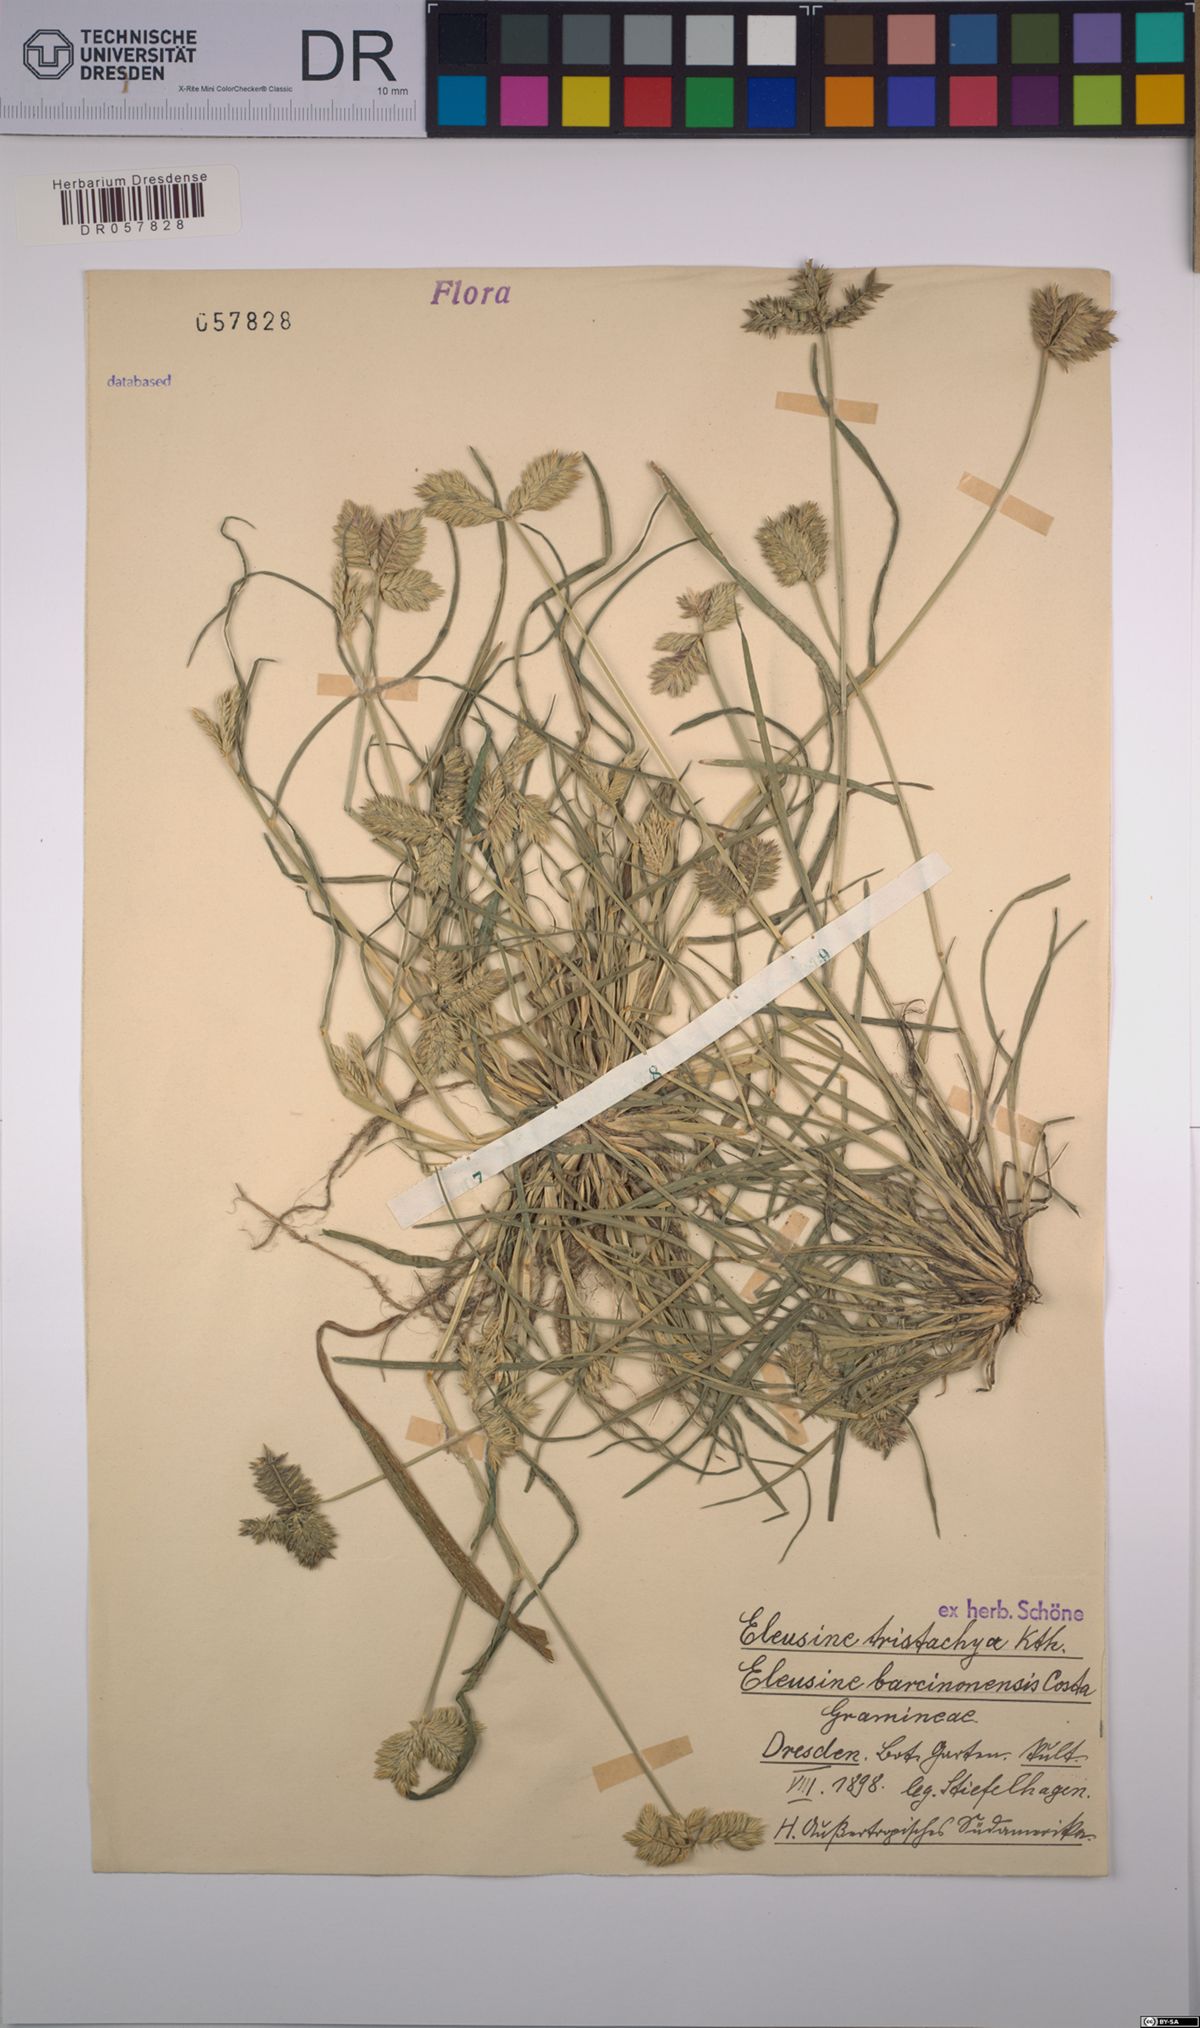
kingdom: Plantae
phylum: Tracheophyta
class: Liliopsida
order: Poales
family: Poaceae
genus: Eleusine
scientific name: Eleusine tristachya
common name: American yard-grass
